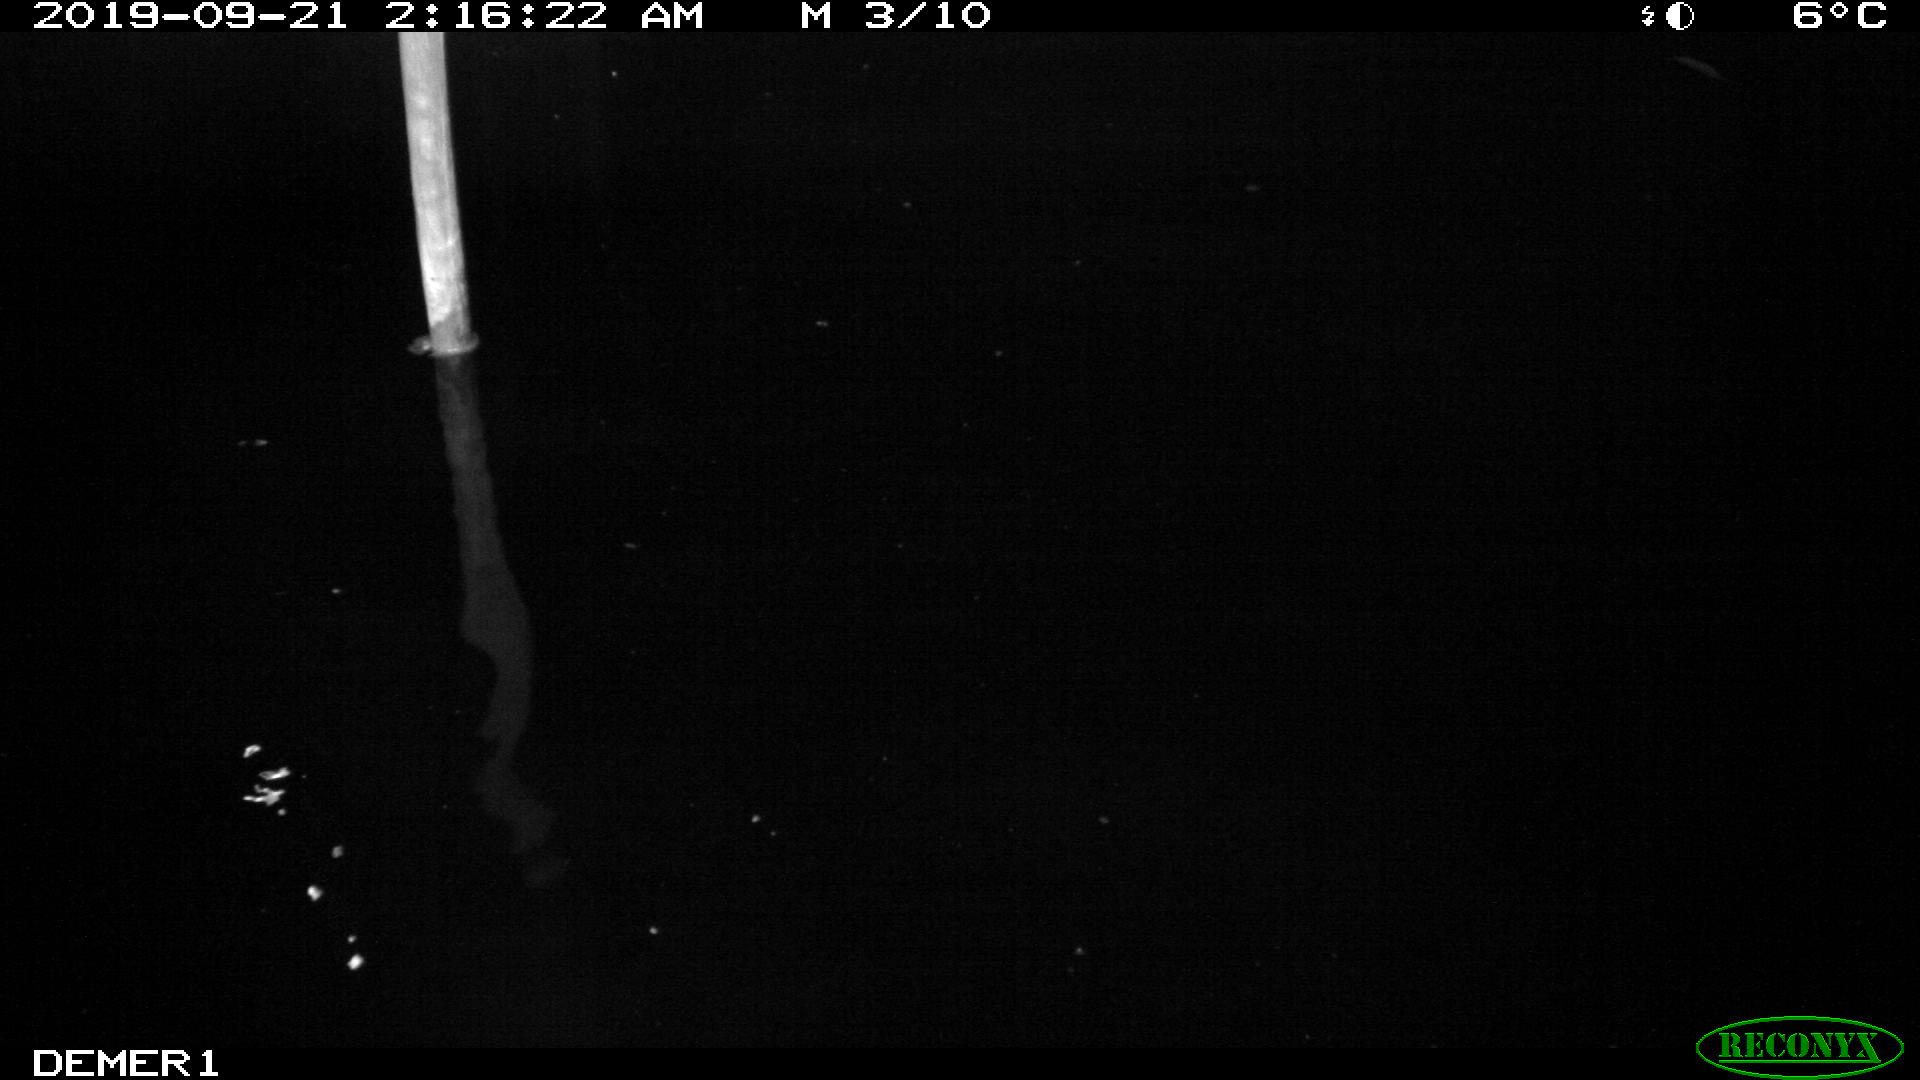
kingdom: Animalia
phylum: Chordata
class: Aves
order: Anseriformes
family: Anatidae
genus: Anas
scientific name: Anas platyrhynchos
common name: Mallard
